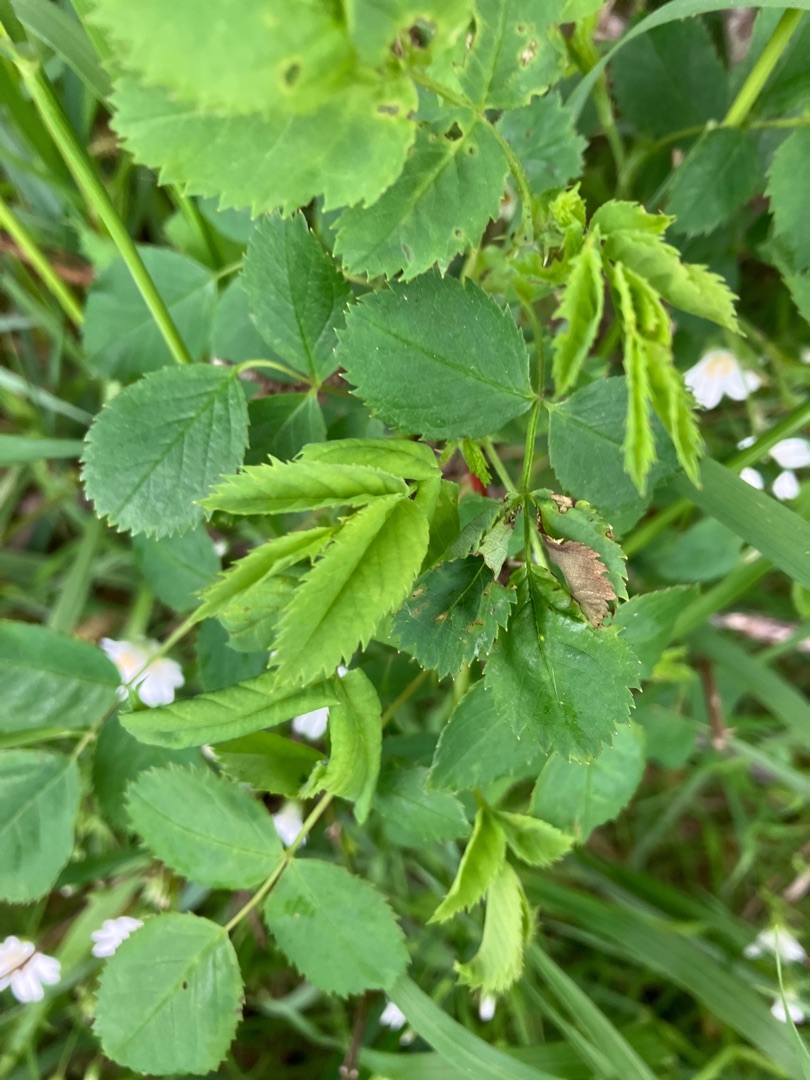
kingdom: Plantae
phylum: Tracheophyta
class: Magnoliopsida
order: Rosales
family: Rosaceae
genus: Rosa
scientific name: Rosa
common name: Roseslægten
